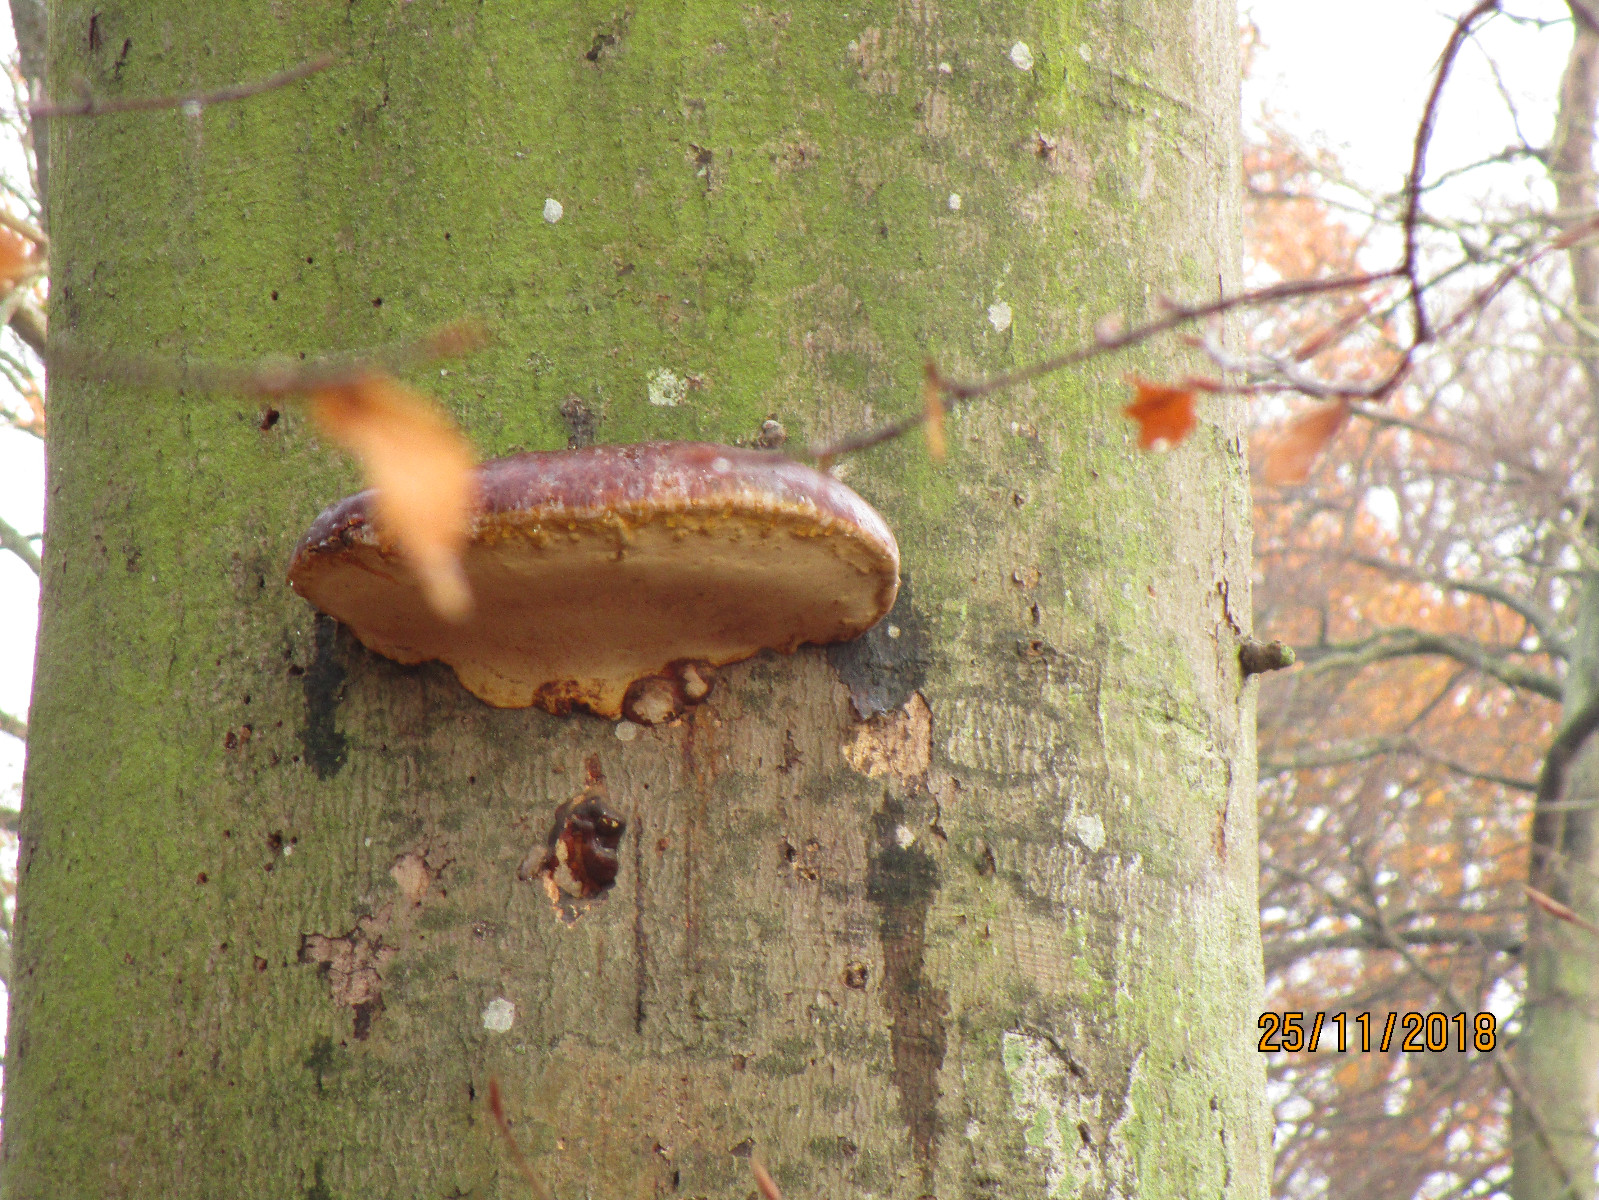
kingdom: Fungi
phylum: Basidiomycota
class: Agaricomycetes
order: Polyporales
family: Polyporaceae
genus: Ganoderma
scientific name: Ganoderma pfeifferi
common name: kobberrød lakporesvamp
